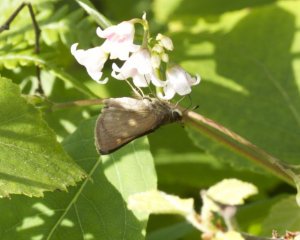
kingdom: Animalia
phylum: Arthropoda
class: Insecta
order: Lepidoptera
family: Hesperiidae
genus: Polites
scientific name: Polites themistocles
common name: Tawny-edged Skipper
